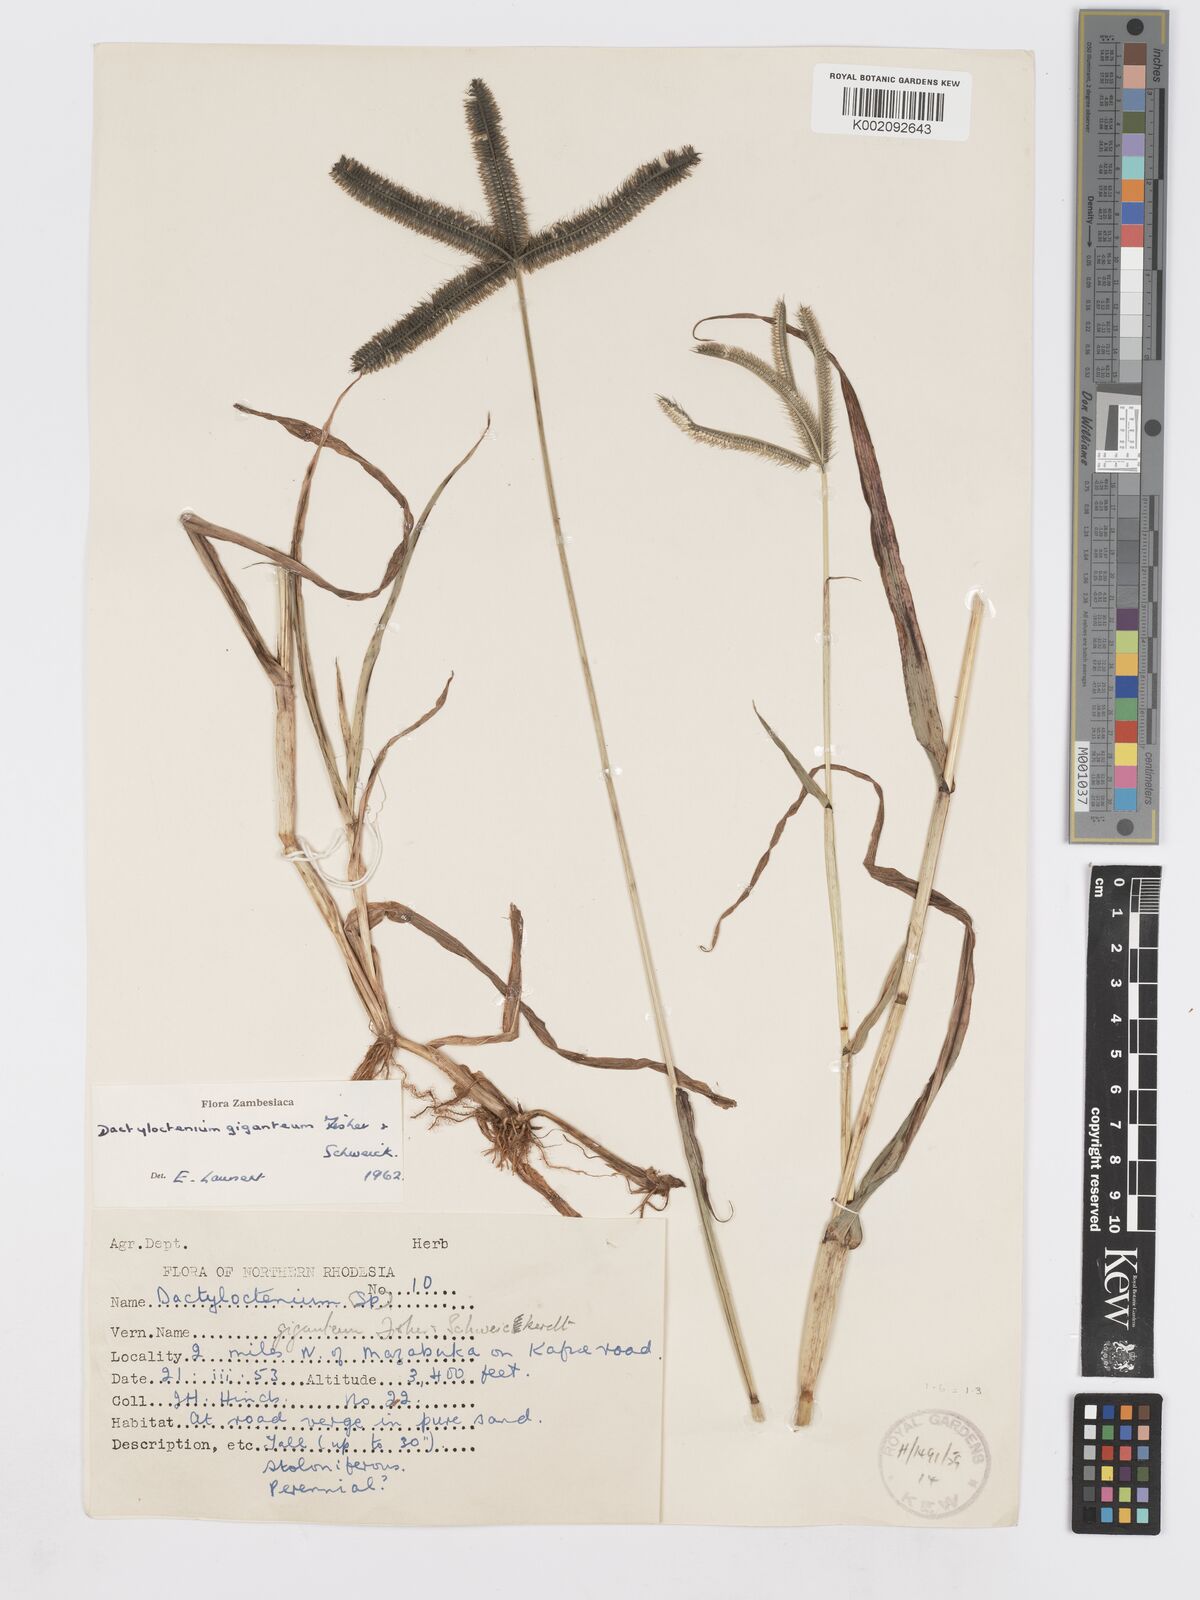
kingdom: Plantae
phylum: Tracheophyta
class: Liliopsida
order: Poales
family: Poaceae
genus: Dactyloctenium
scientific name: Dactyloctenium giganteum
